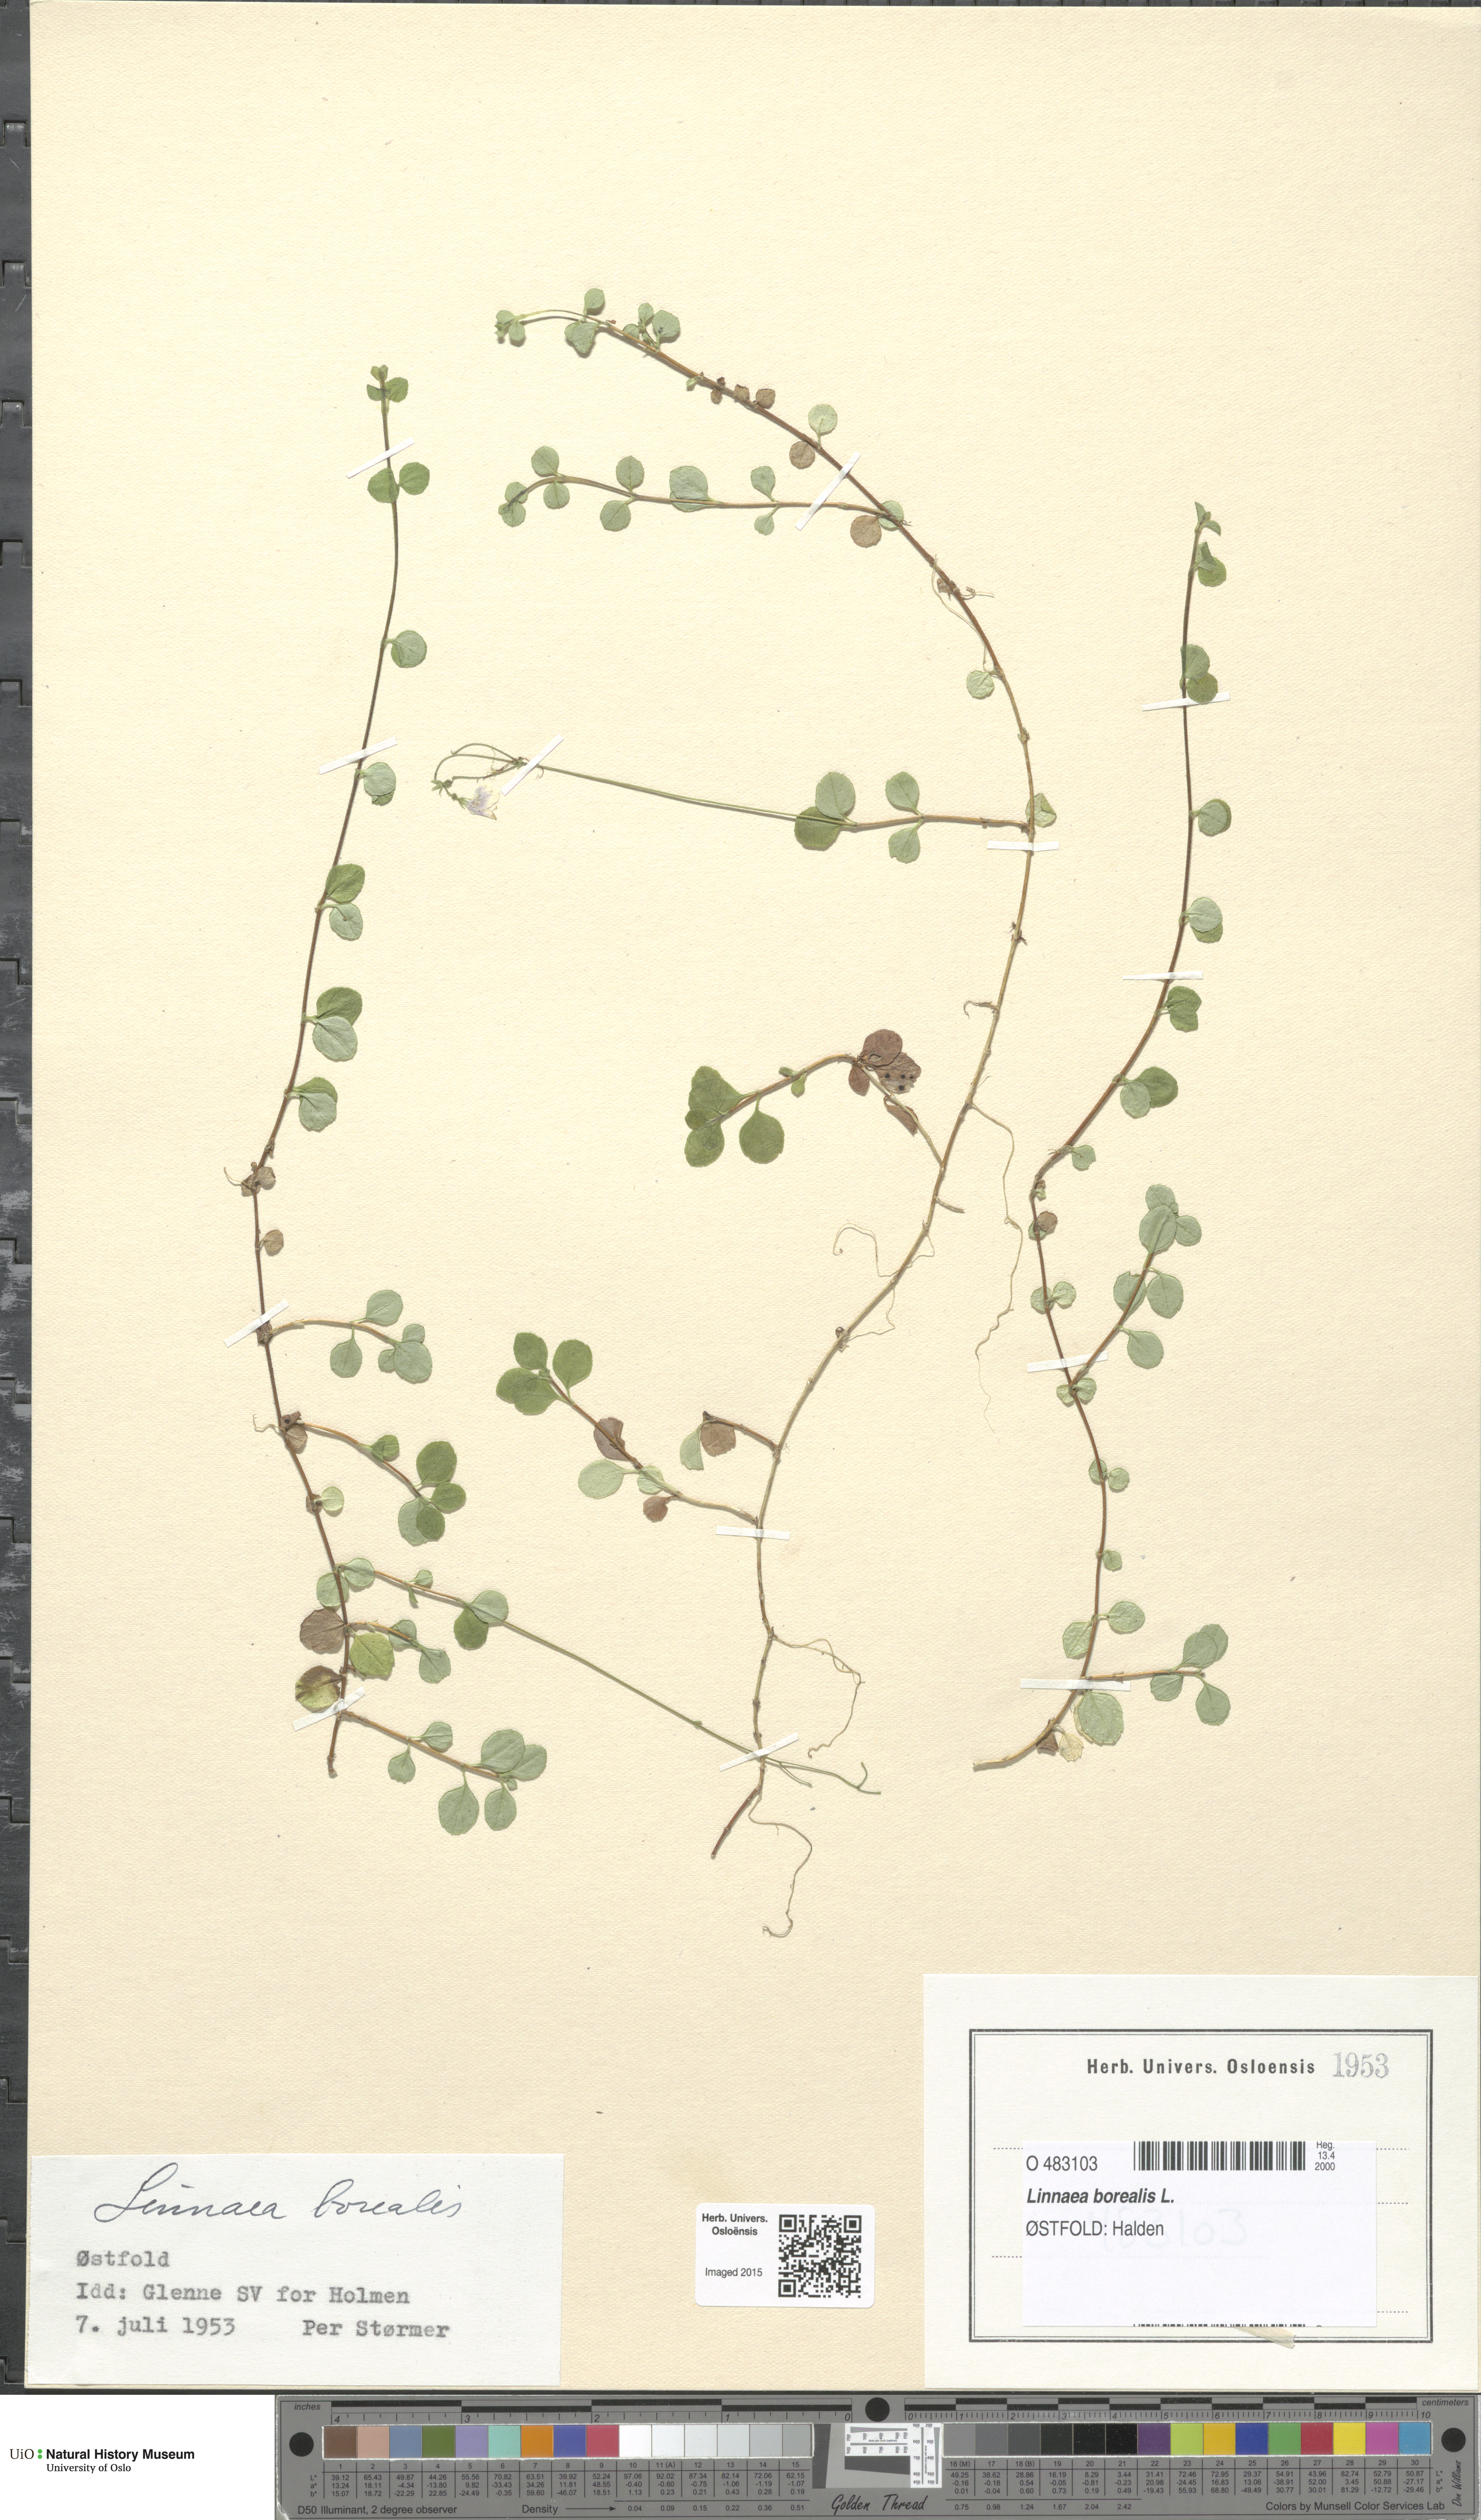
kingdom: Plantae
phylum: Tracheophyta
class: Magnoliopsida
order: Dipsacales
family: Caprifoliaceae
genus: Linnaea
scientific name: Linnaea borealis
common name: Twinflower
